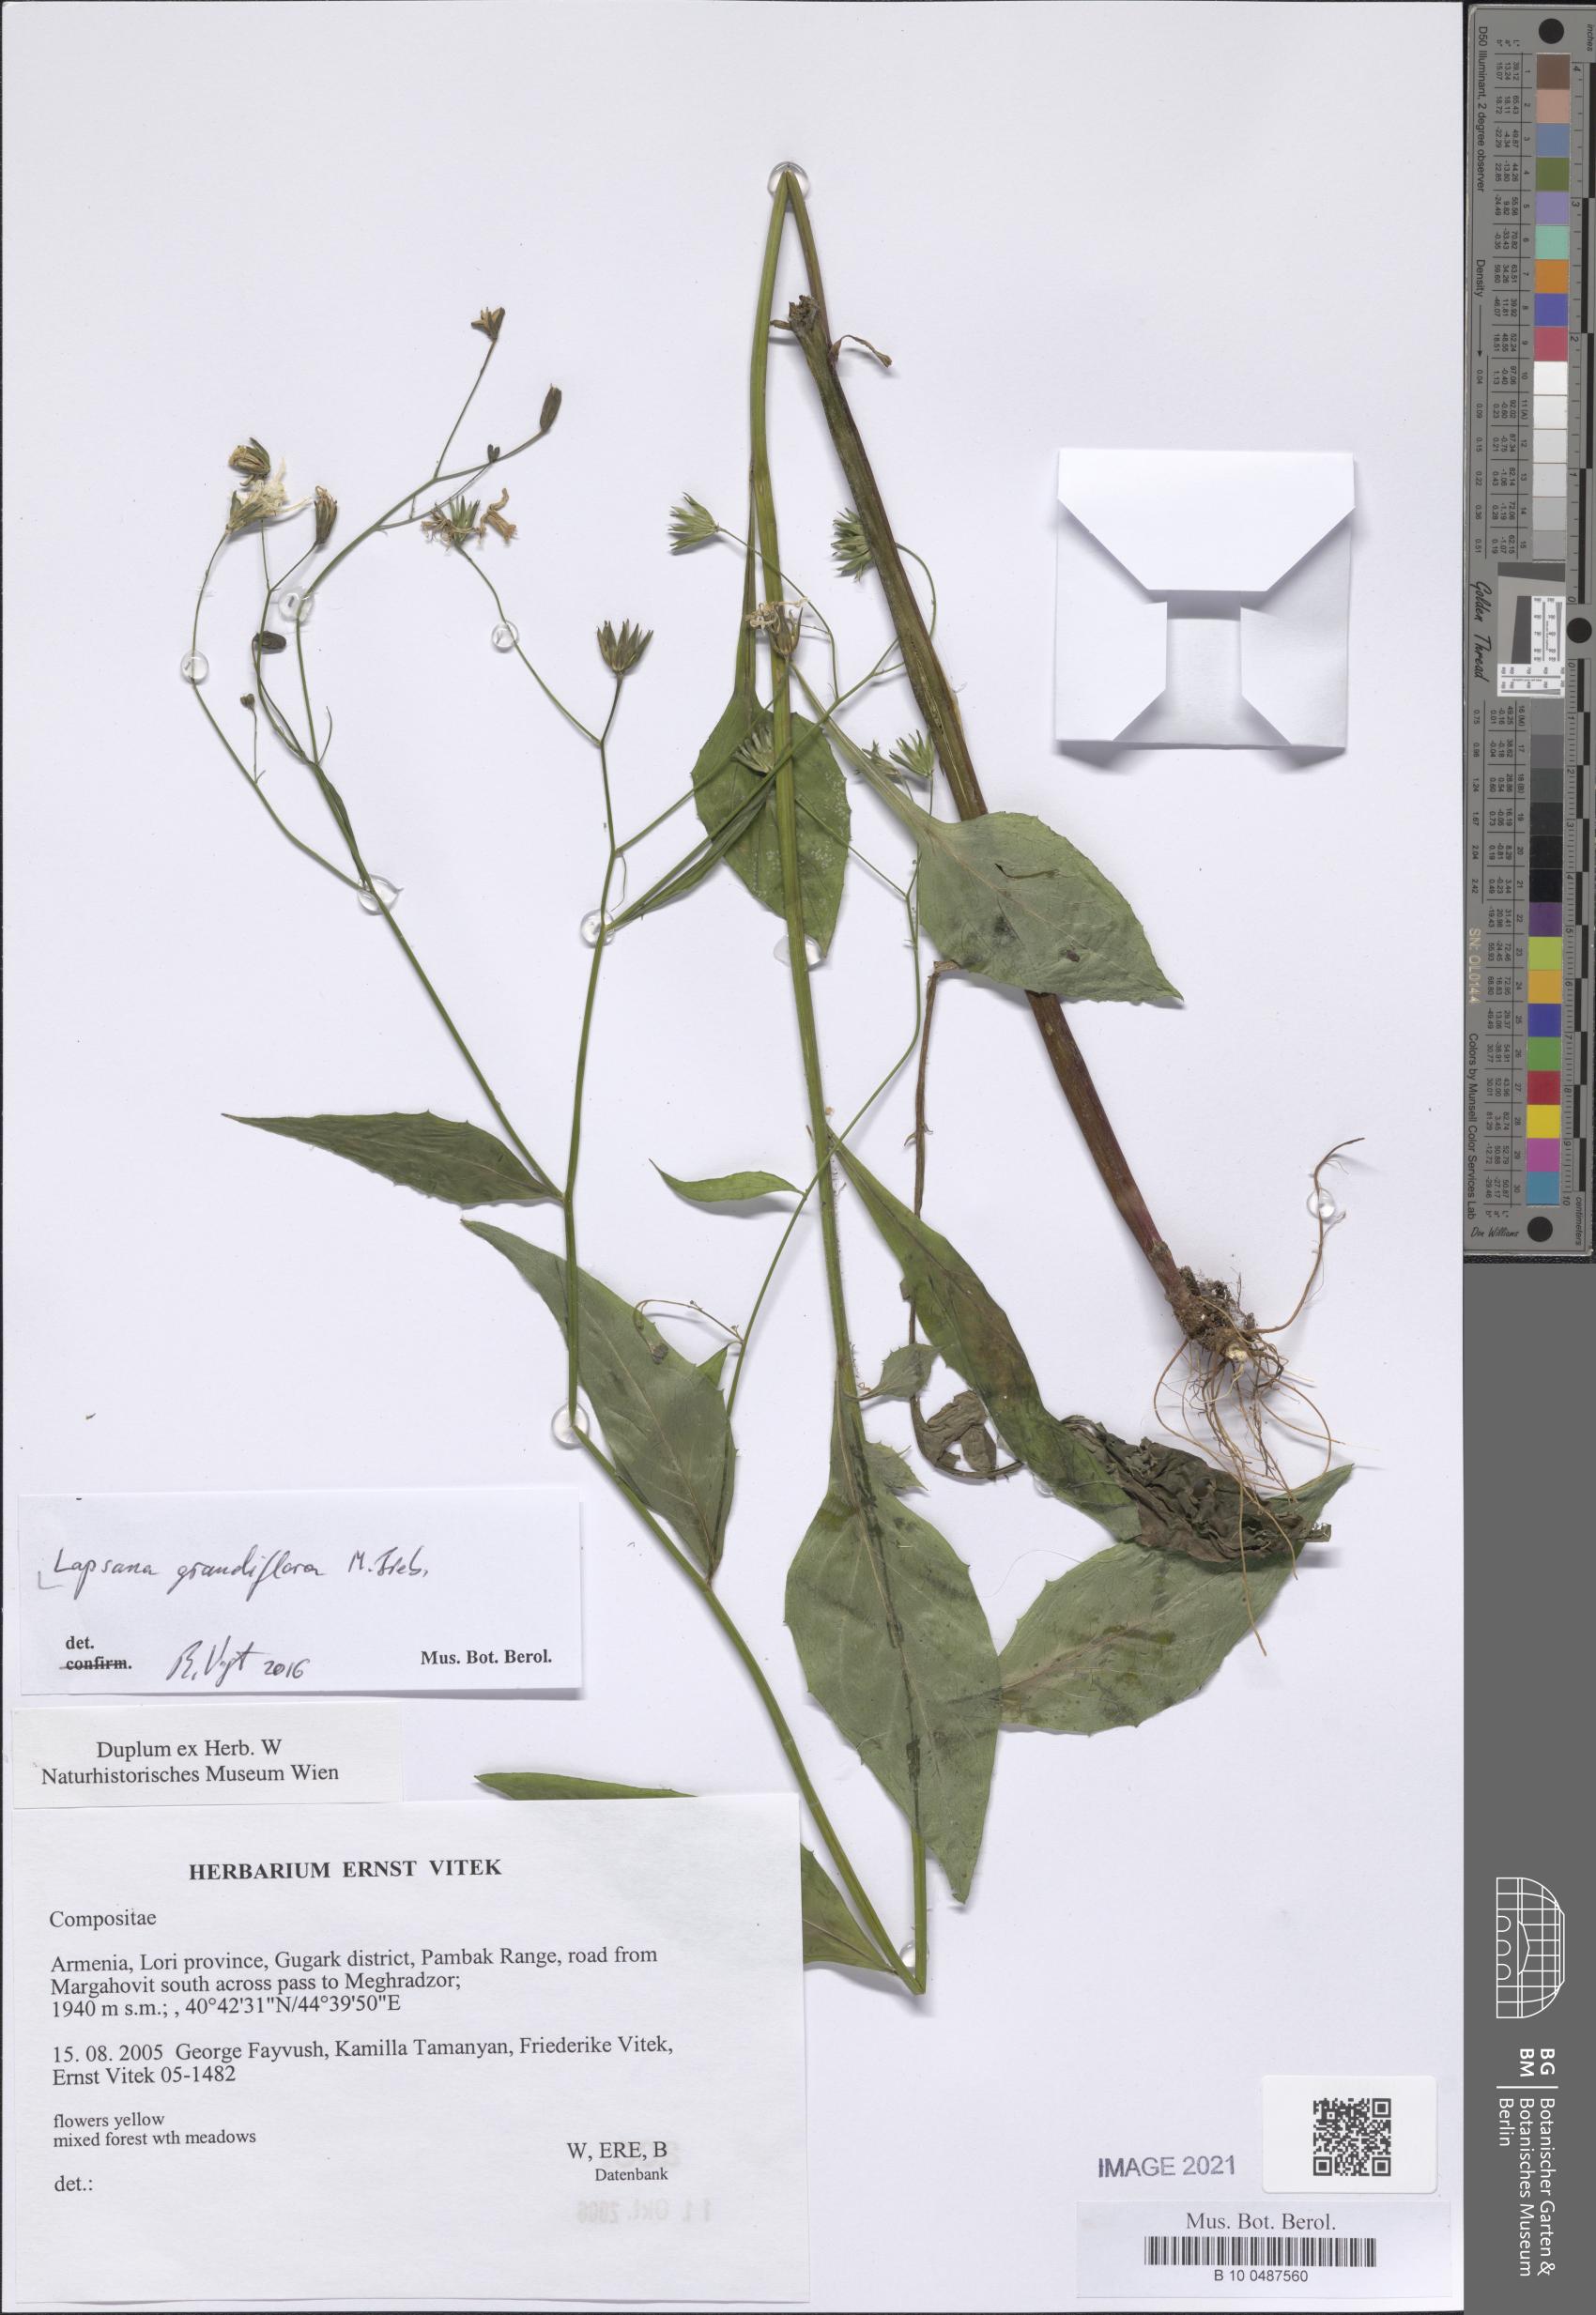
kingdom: Plantae
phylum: Tracheophyta
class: Magnoliopsida
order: Asterales
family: Asteraceae
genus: Lapsana
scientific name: Lapsana communis
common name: Nipplewort
